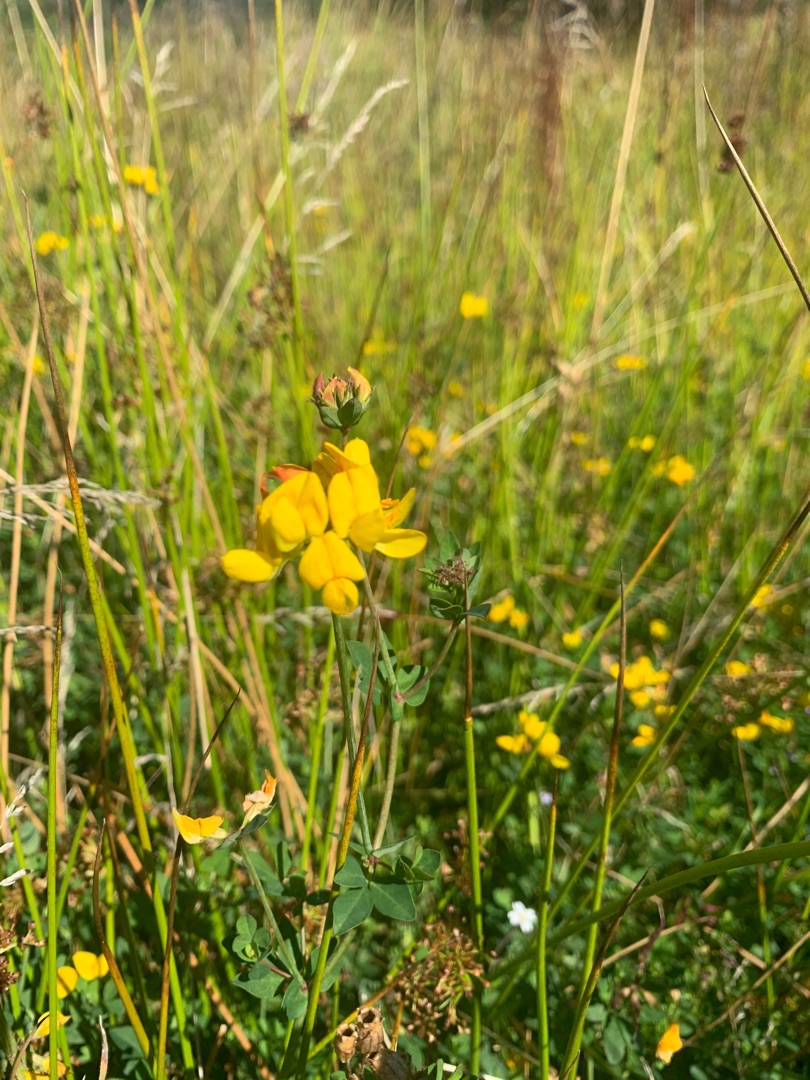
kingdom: Plantae
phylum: Tracheophyta
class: Magnoliopsida
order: Fabales
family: Fabaceae
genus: Lotus
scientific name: Lotus corniculatus
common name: Almindelig kællingetand
